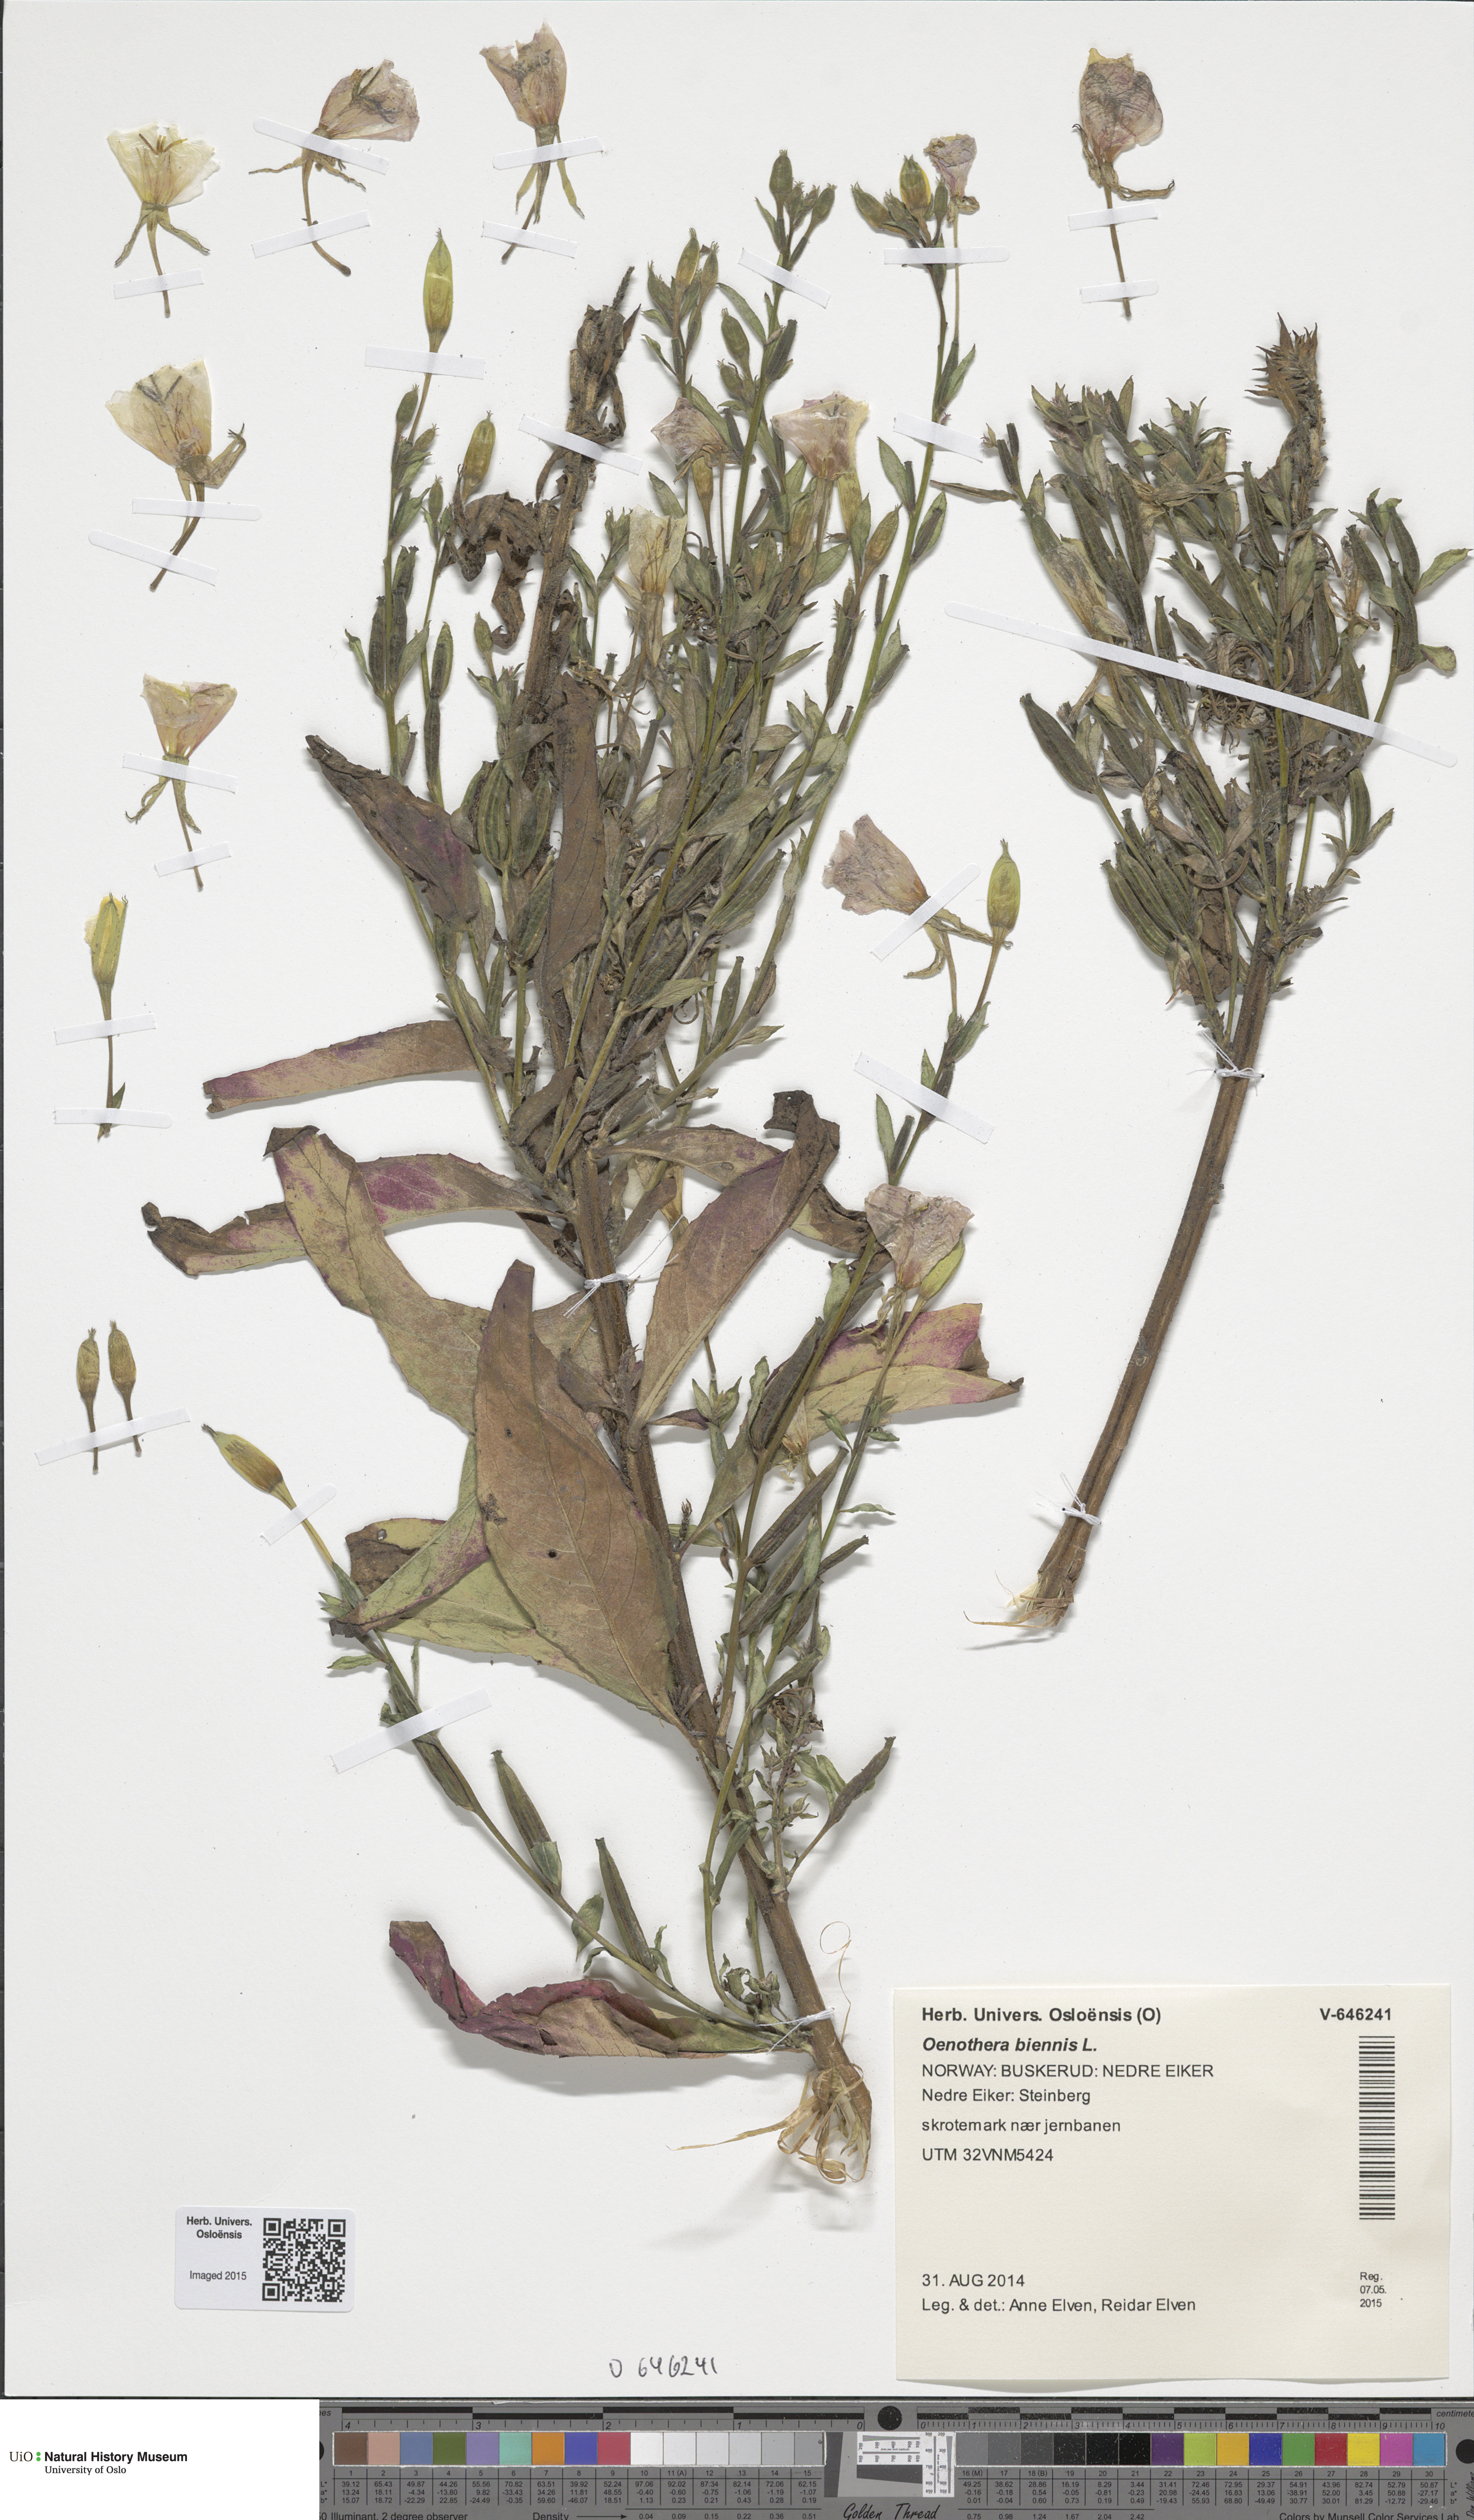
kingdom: Plantae
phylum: Tracheophyta
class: Magnoliopsida
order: Myrtales
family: Onagraceae
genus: Oenothera
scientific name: Oenothera biennis
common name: Common evening-primrose
